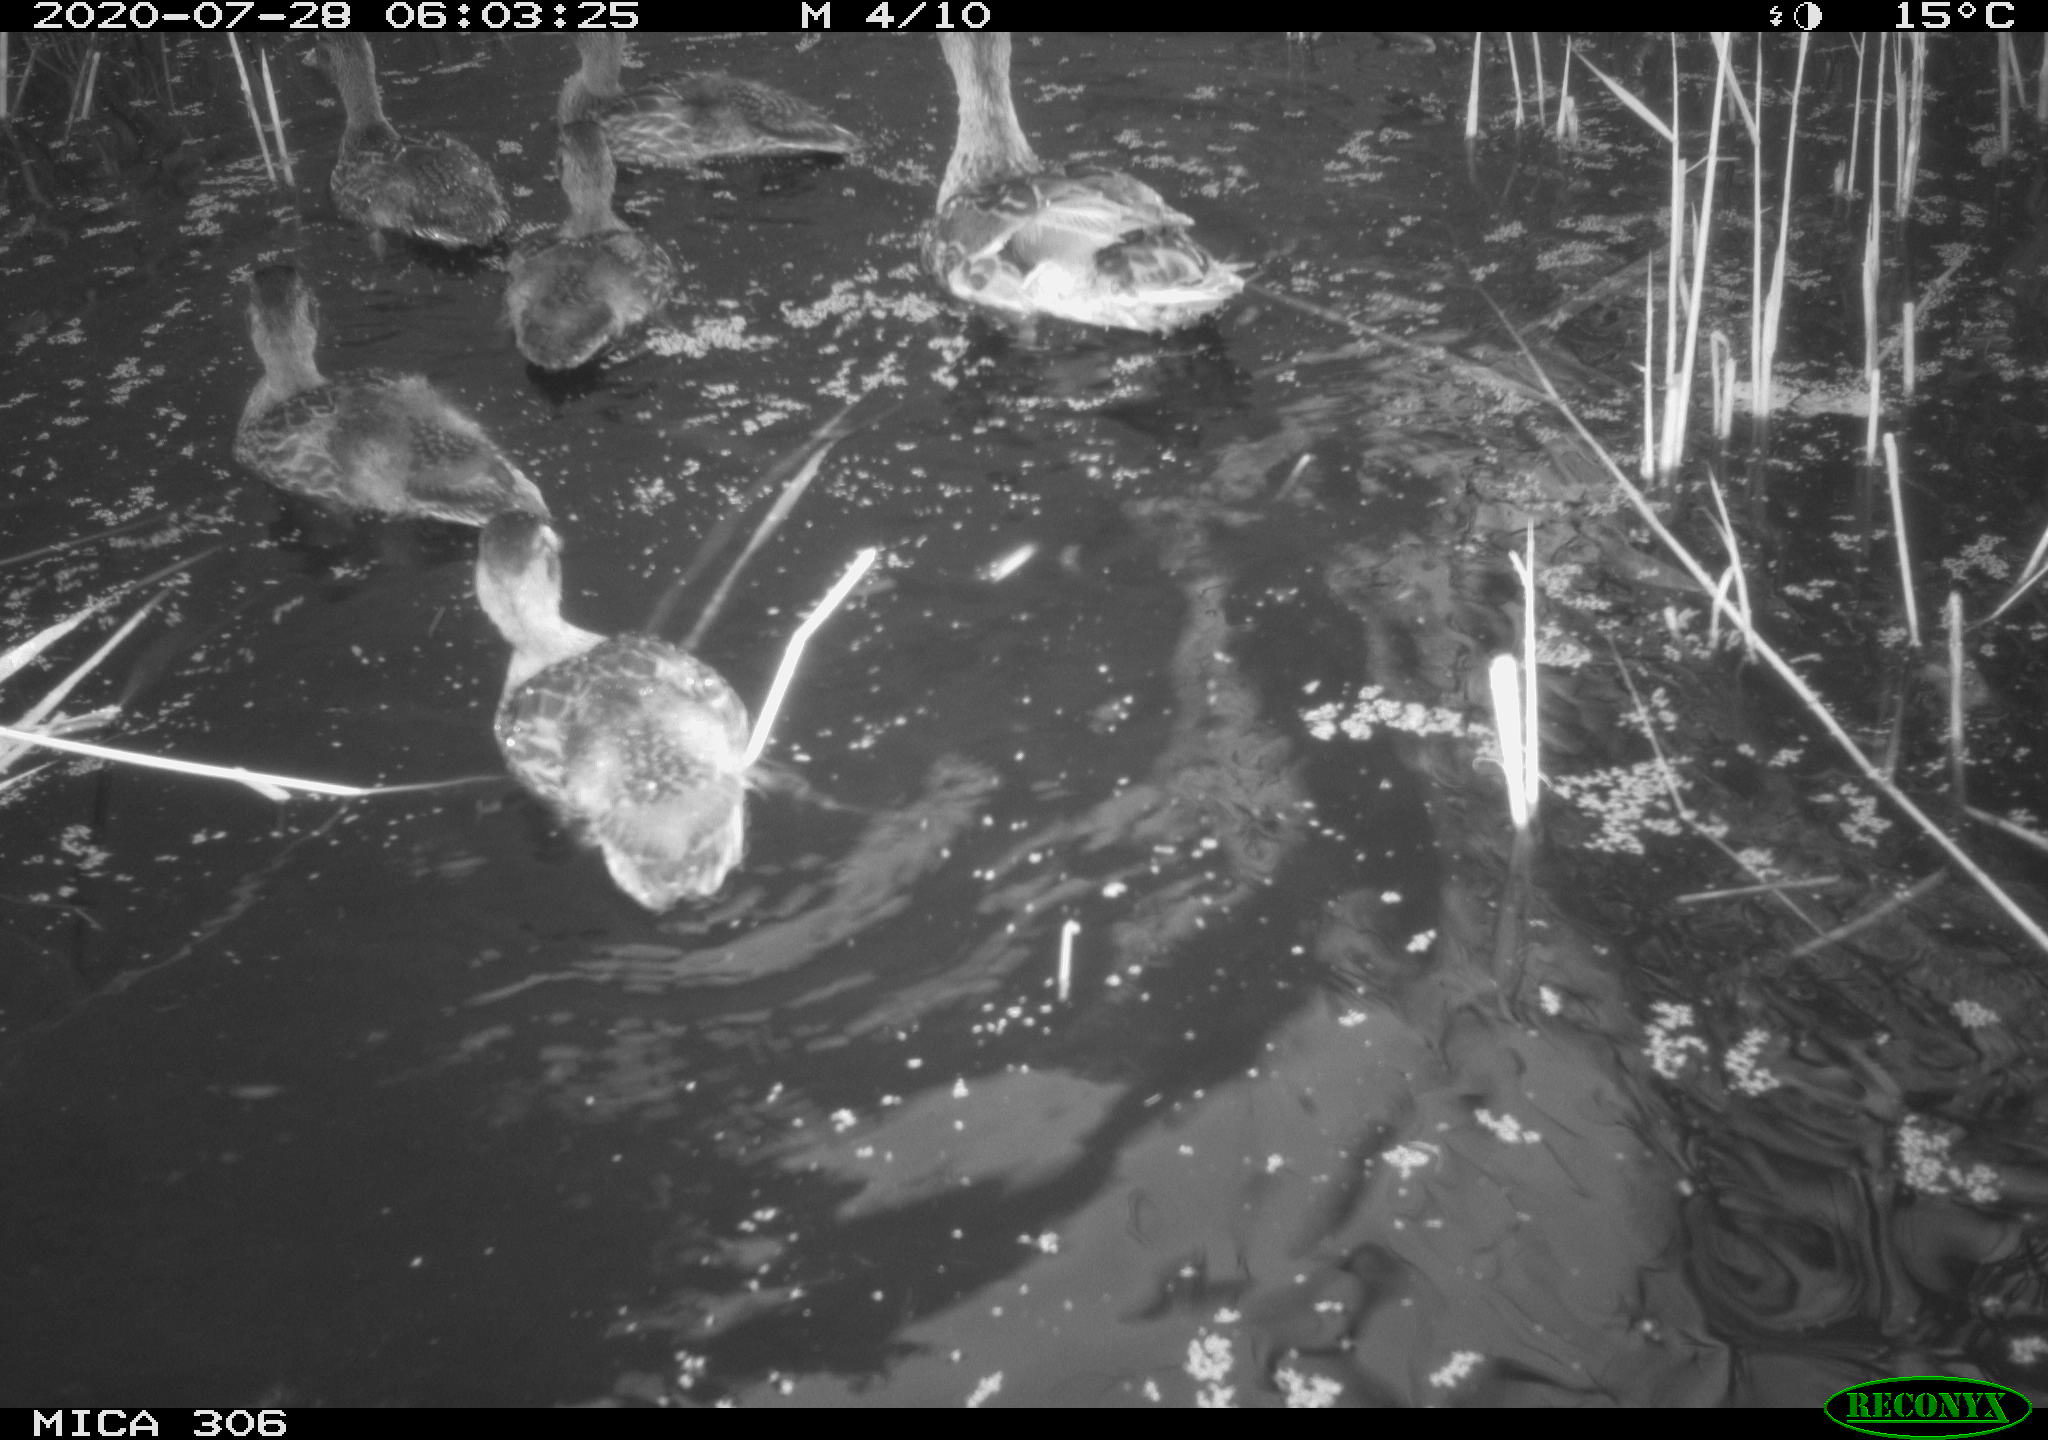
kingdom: Animalia
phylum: Chordata
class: Aves
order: Anseriformes
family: Anatidae
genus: Anas
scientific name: Anas platyrhynchos
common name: Mallard
